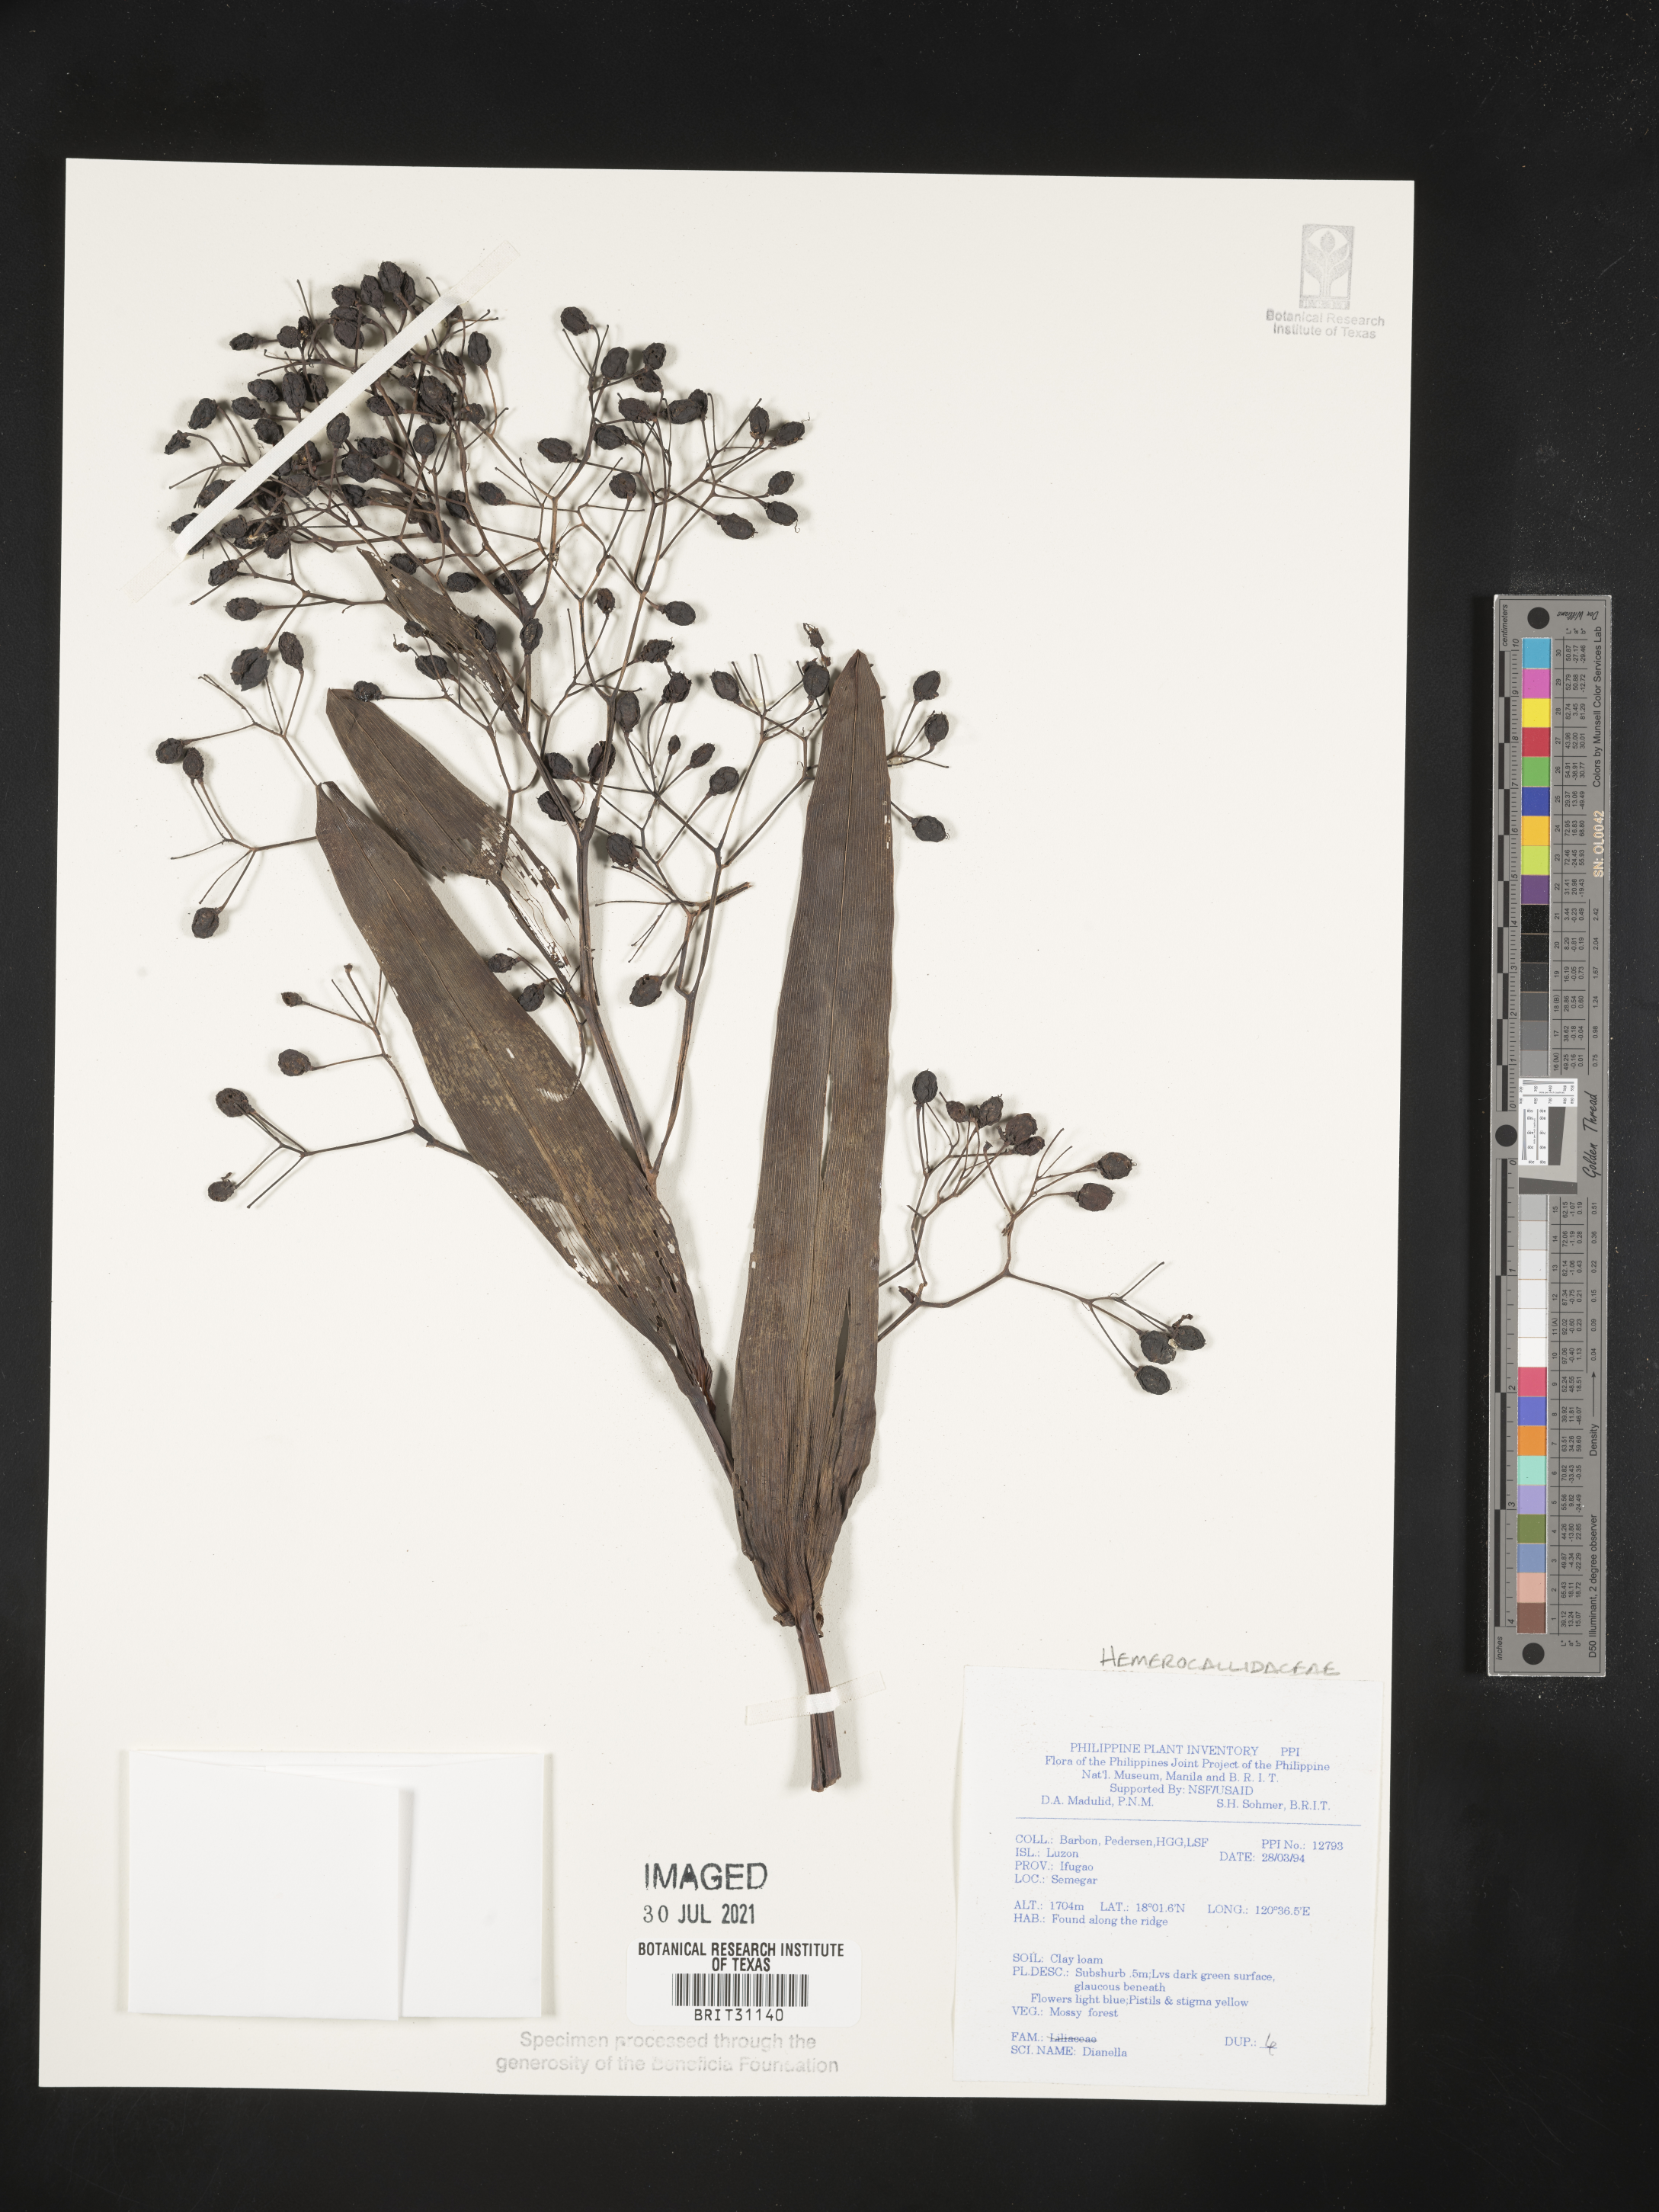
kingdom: Plantae
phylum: Tracheophyta
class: Liliopsida
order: Asparagales
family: Asphodelaceae
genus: Dianella
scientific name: Dianella
